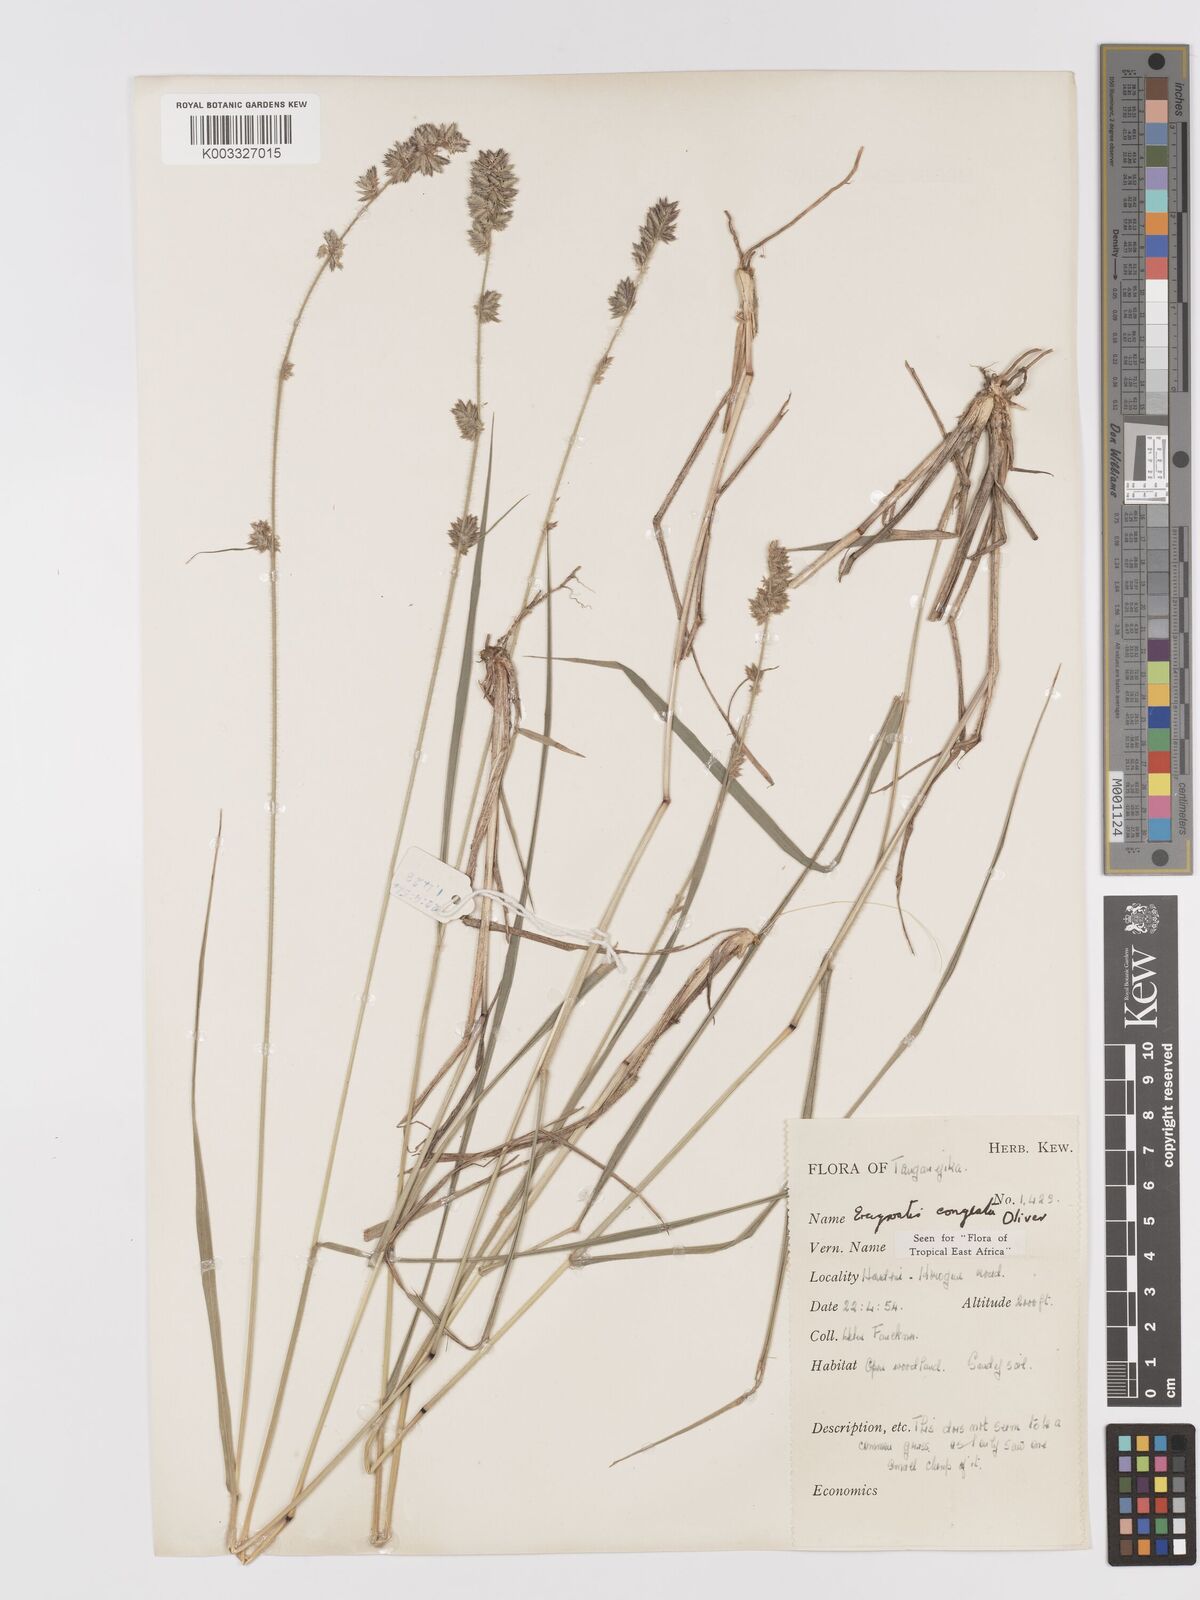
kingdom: Plantae
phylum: Tracheophyta
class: Liliopsida
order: Poales
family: Poaceae
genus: Eragrostis
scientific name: Eragrostis congesta
